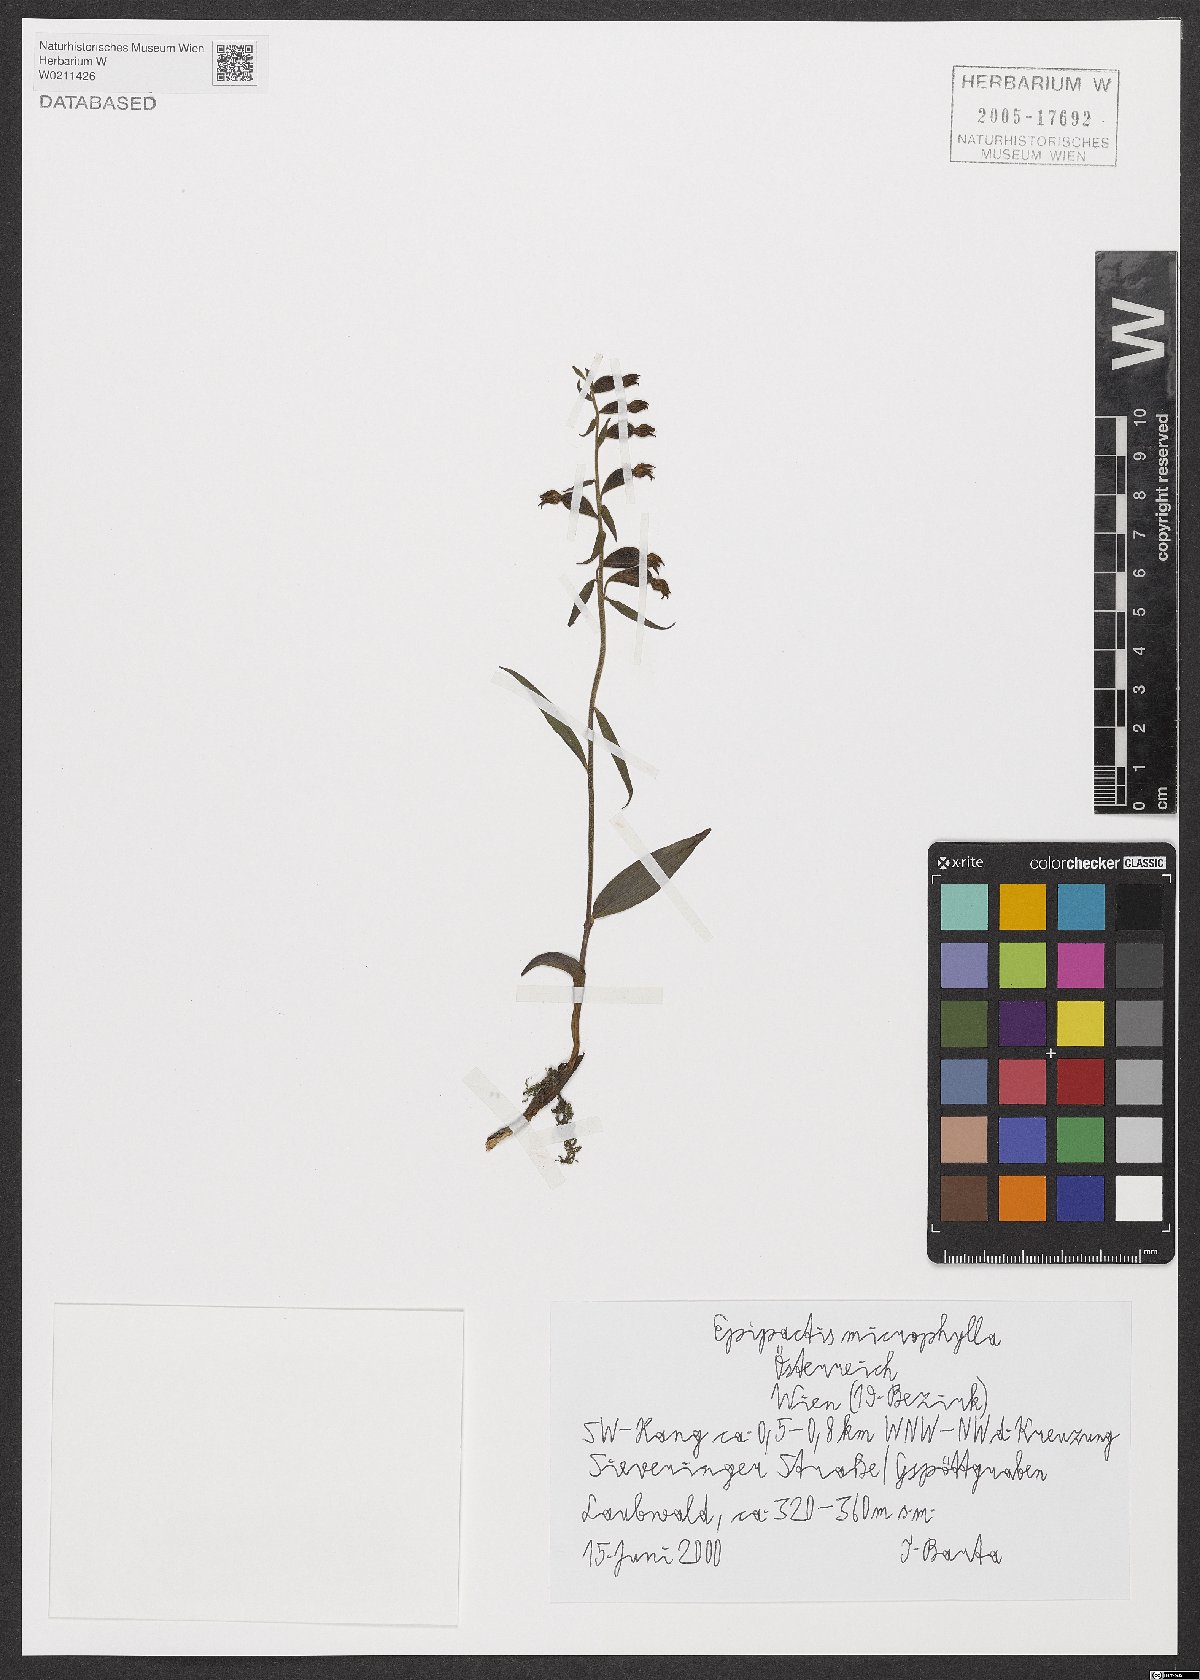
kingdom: Plantae
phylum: Tracheophyta
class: Liliopsida
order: Asparagales
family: Orchidaceae
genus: Epipactis
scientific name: Epipactis microphylla
